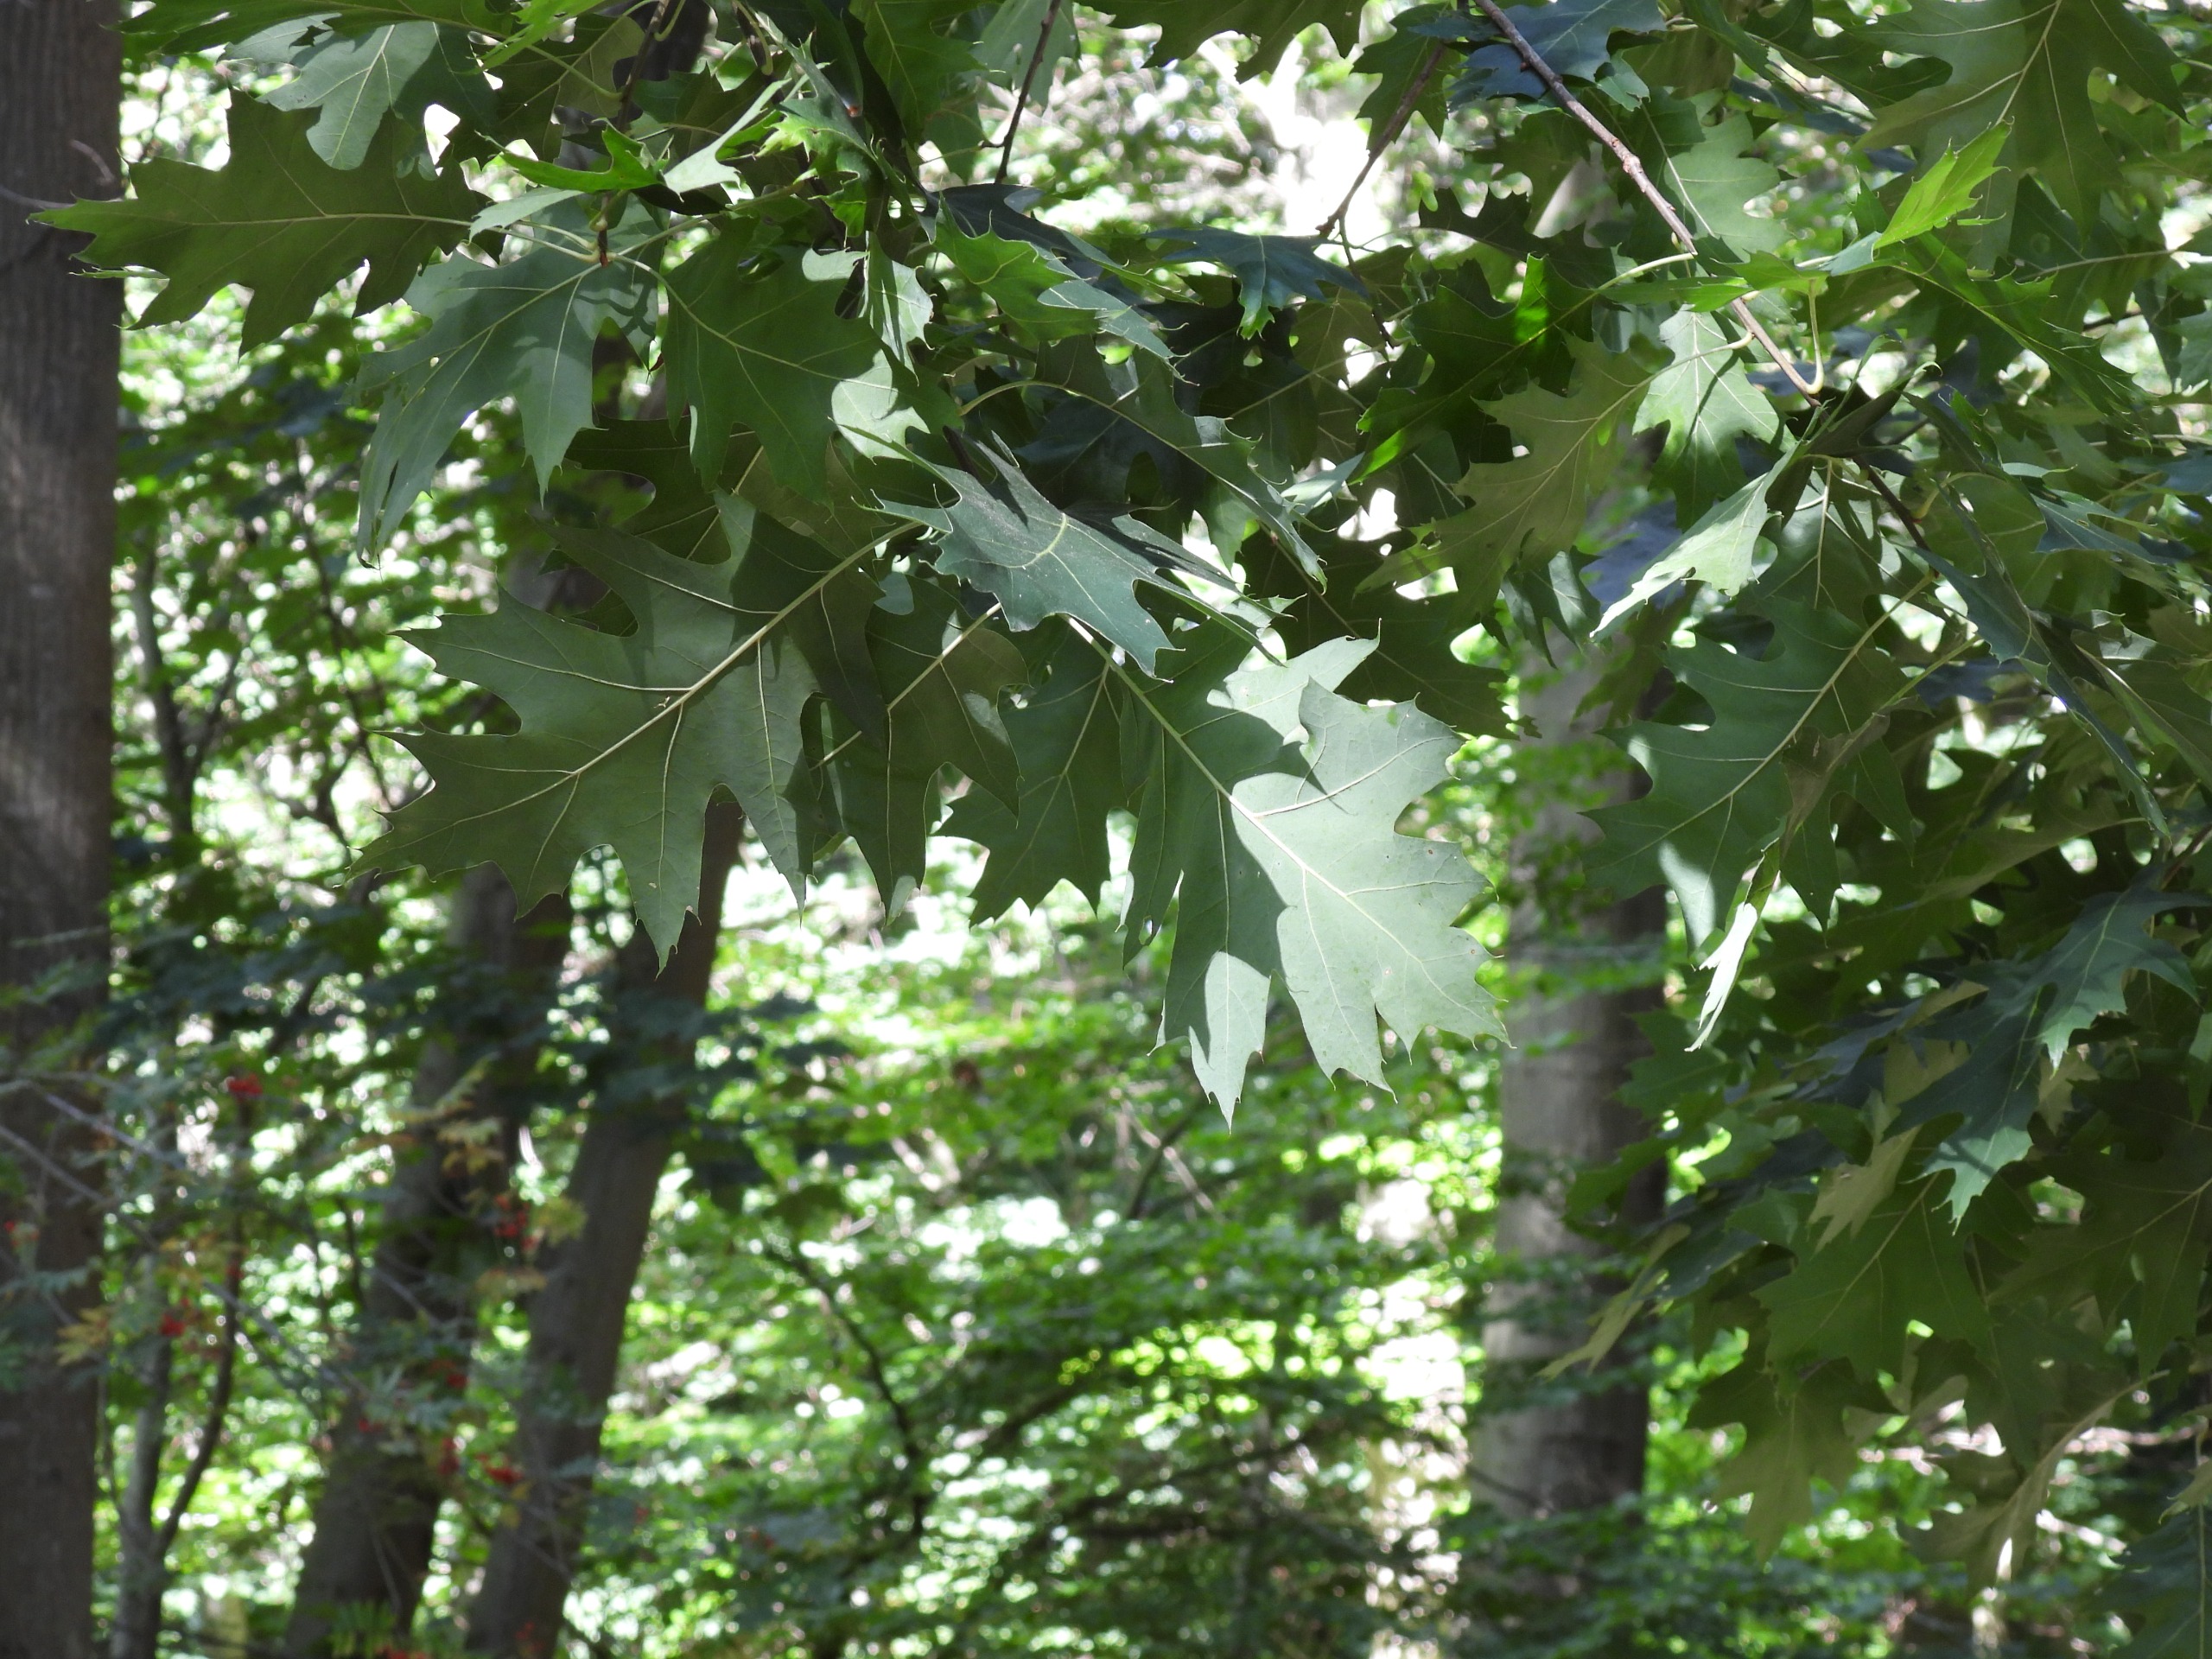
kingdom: Plantae
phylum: Tracheophyta
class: Magnoliopsida
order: Fagales
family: Fagaceae
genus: Quercus
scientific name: Quercus rubra
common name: Rød-eg
